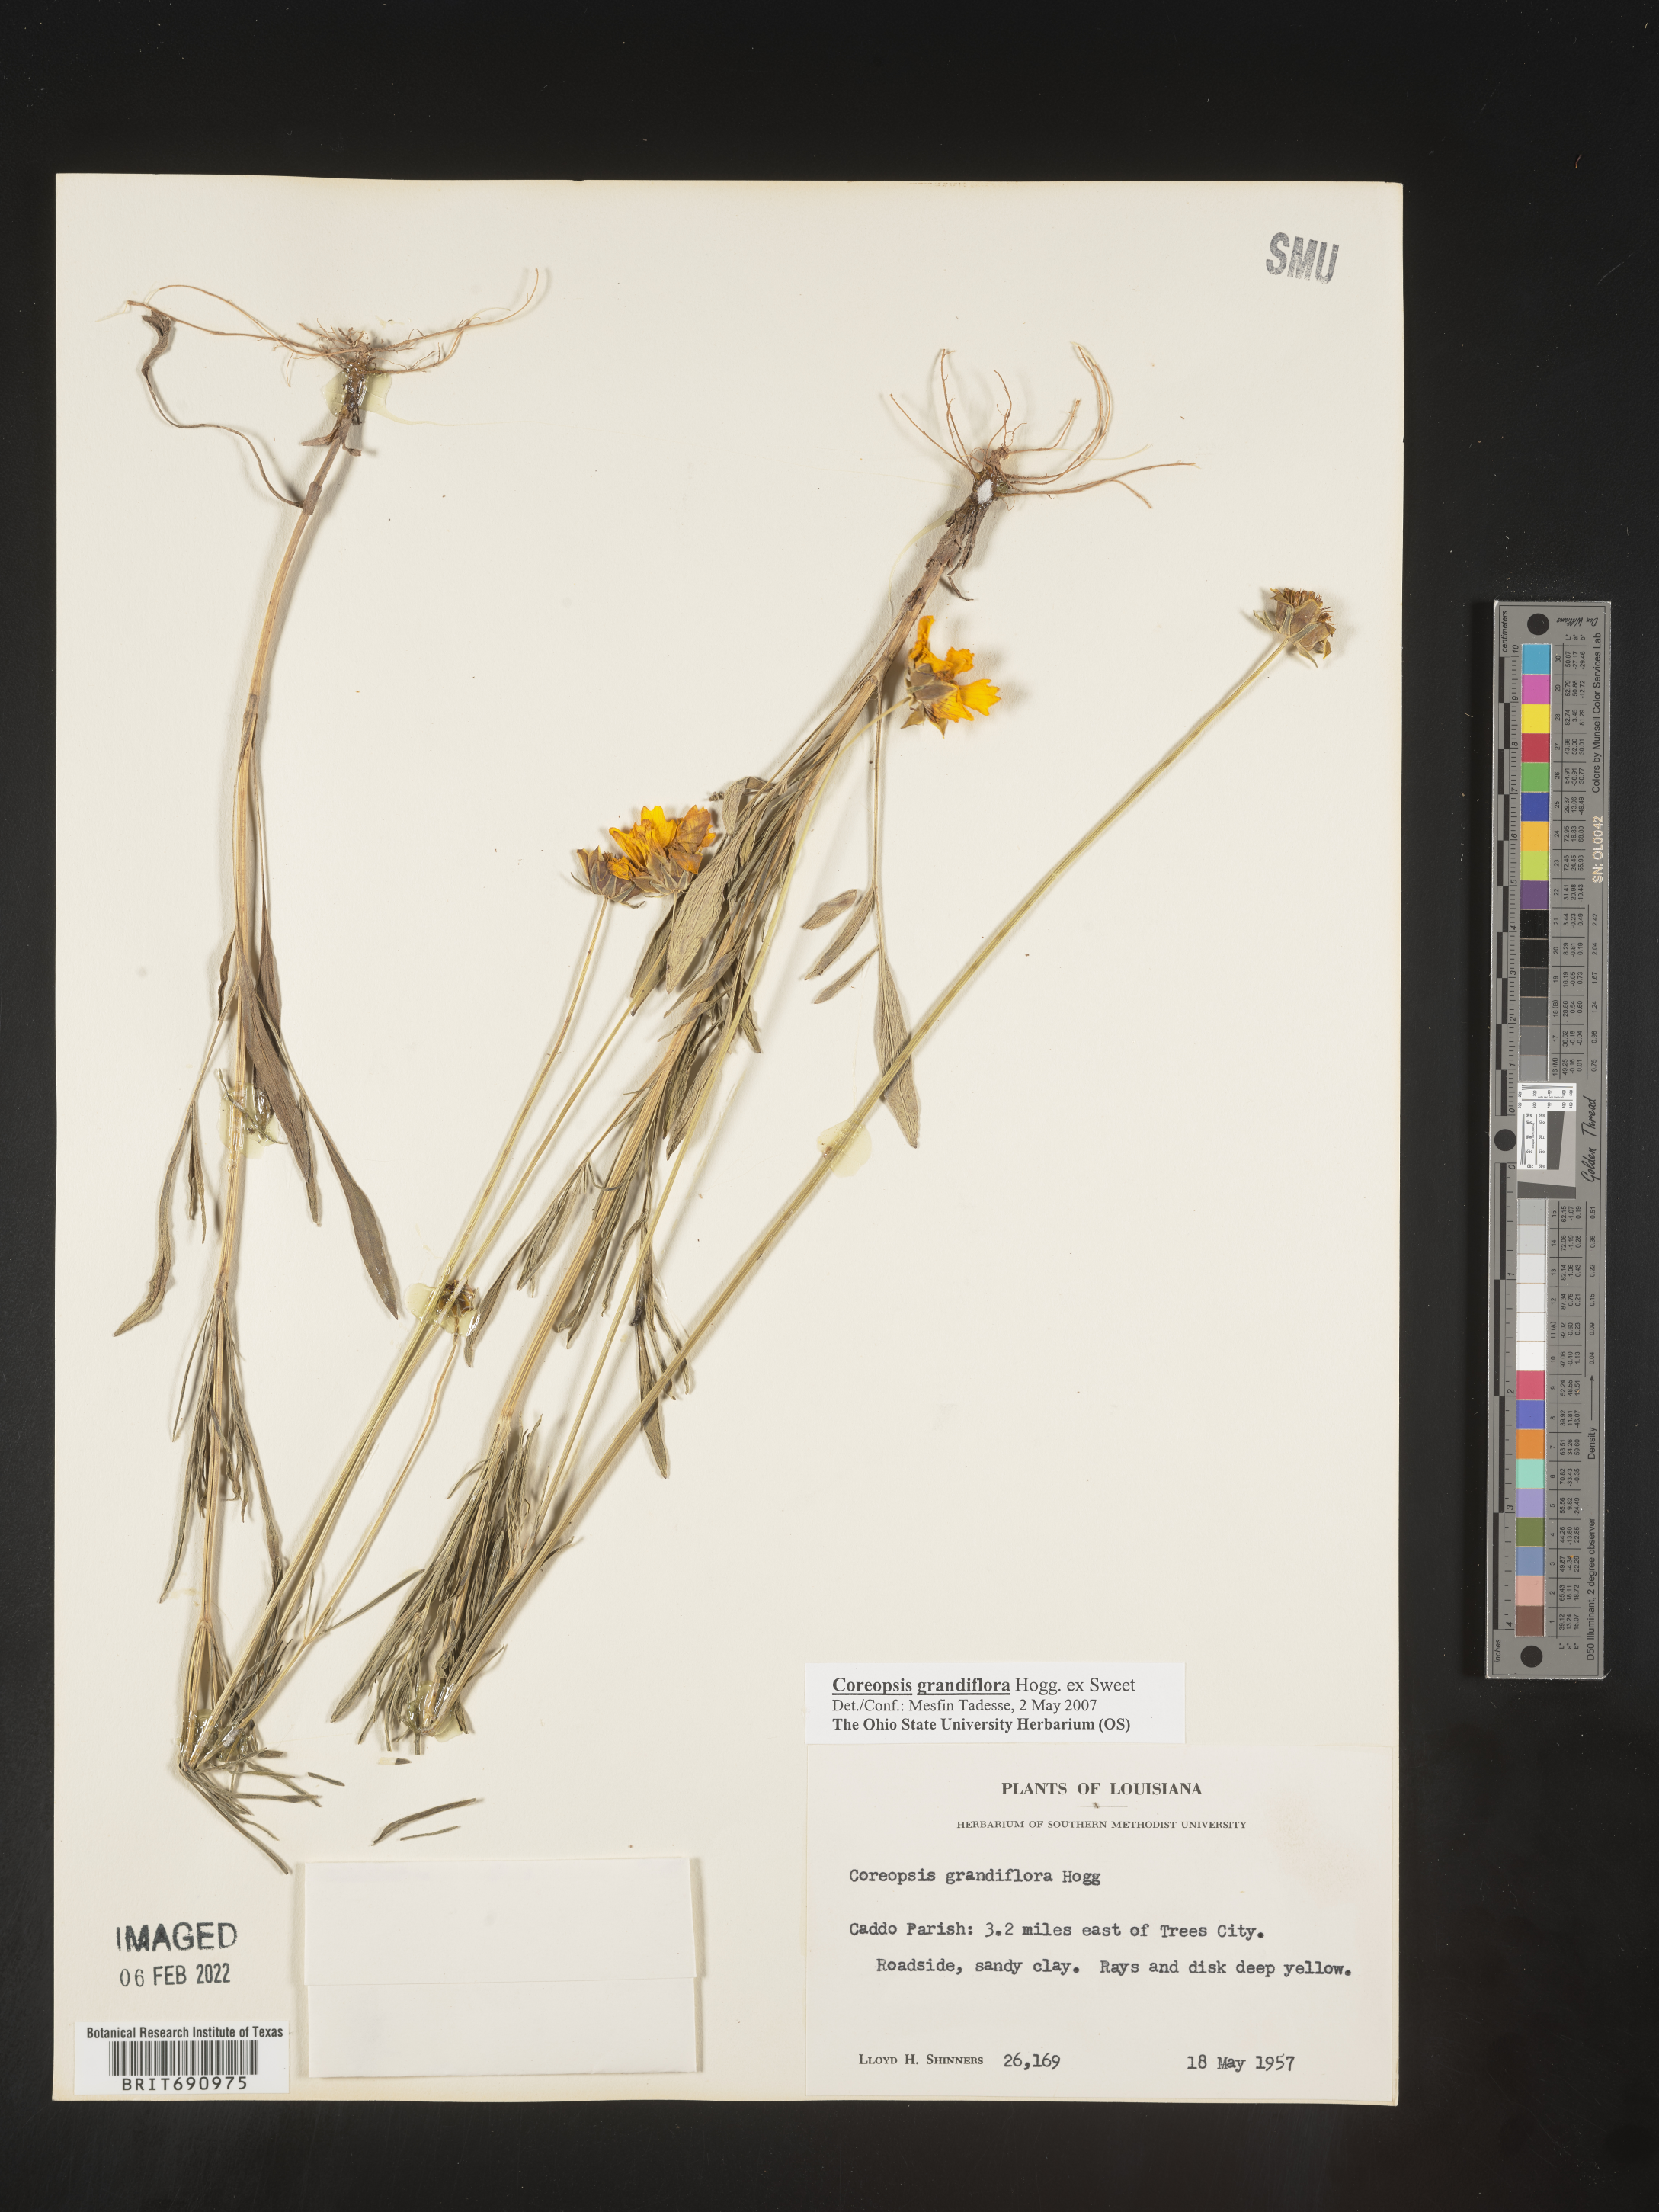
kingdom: Plantae
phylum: Tracheophyta
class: Magnoliopsida
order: Asterales
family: Asteraceae
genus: Coreopsis
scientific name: Coreopsis grandiflora
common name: Large-flowered tickseed
